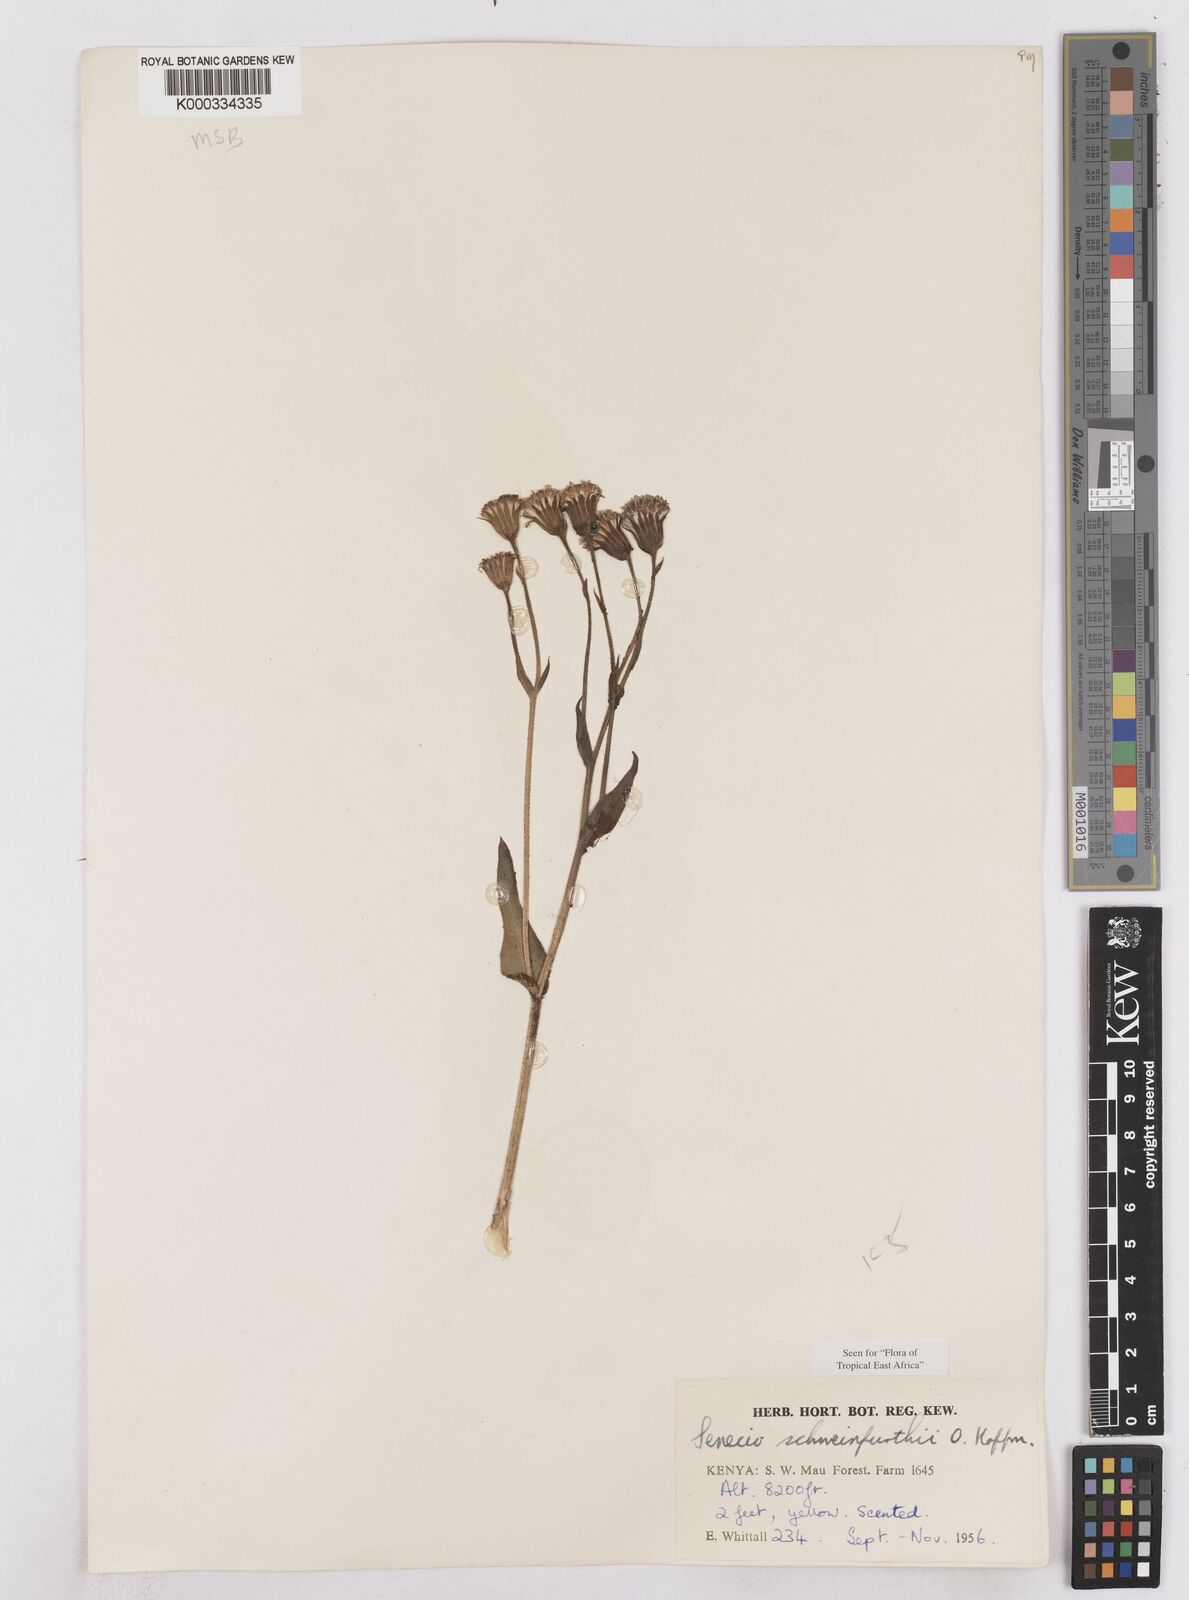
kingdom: Plantae
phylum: Tracheophyta
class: Magnoliopsida
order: Asterales
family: Asteraceae
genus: Senecio
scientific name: Senecio schweinfurthii
